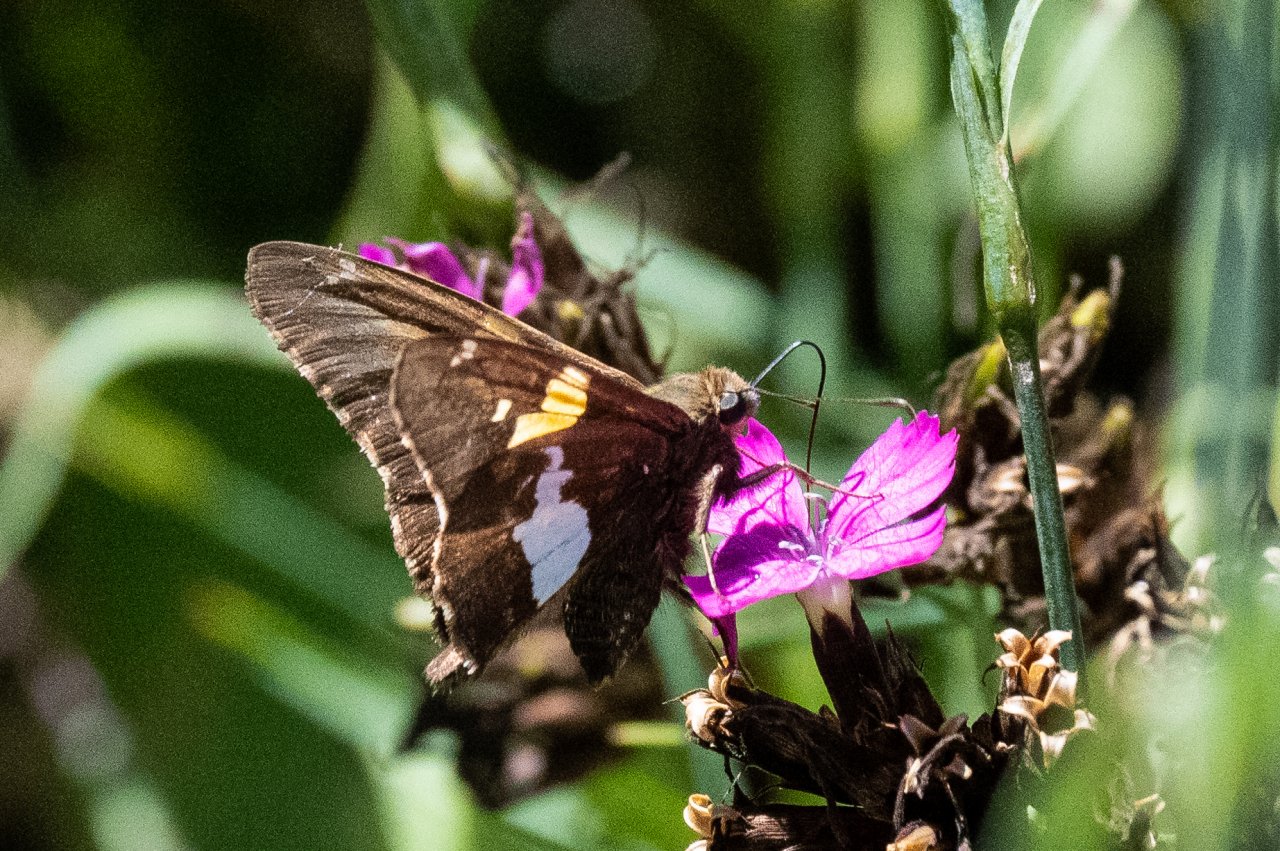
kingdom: Animalia
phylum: Arthropoda
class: Insecta
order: Lepidoptera
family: Hesperiidae
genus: Epargyreus
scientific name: Epargyreus clarus
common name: Silver-spotted Skipper
